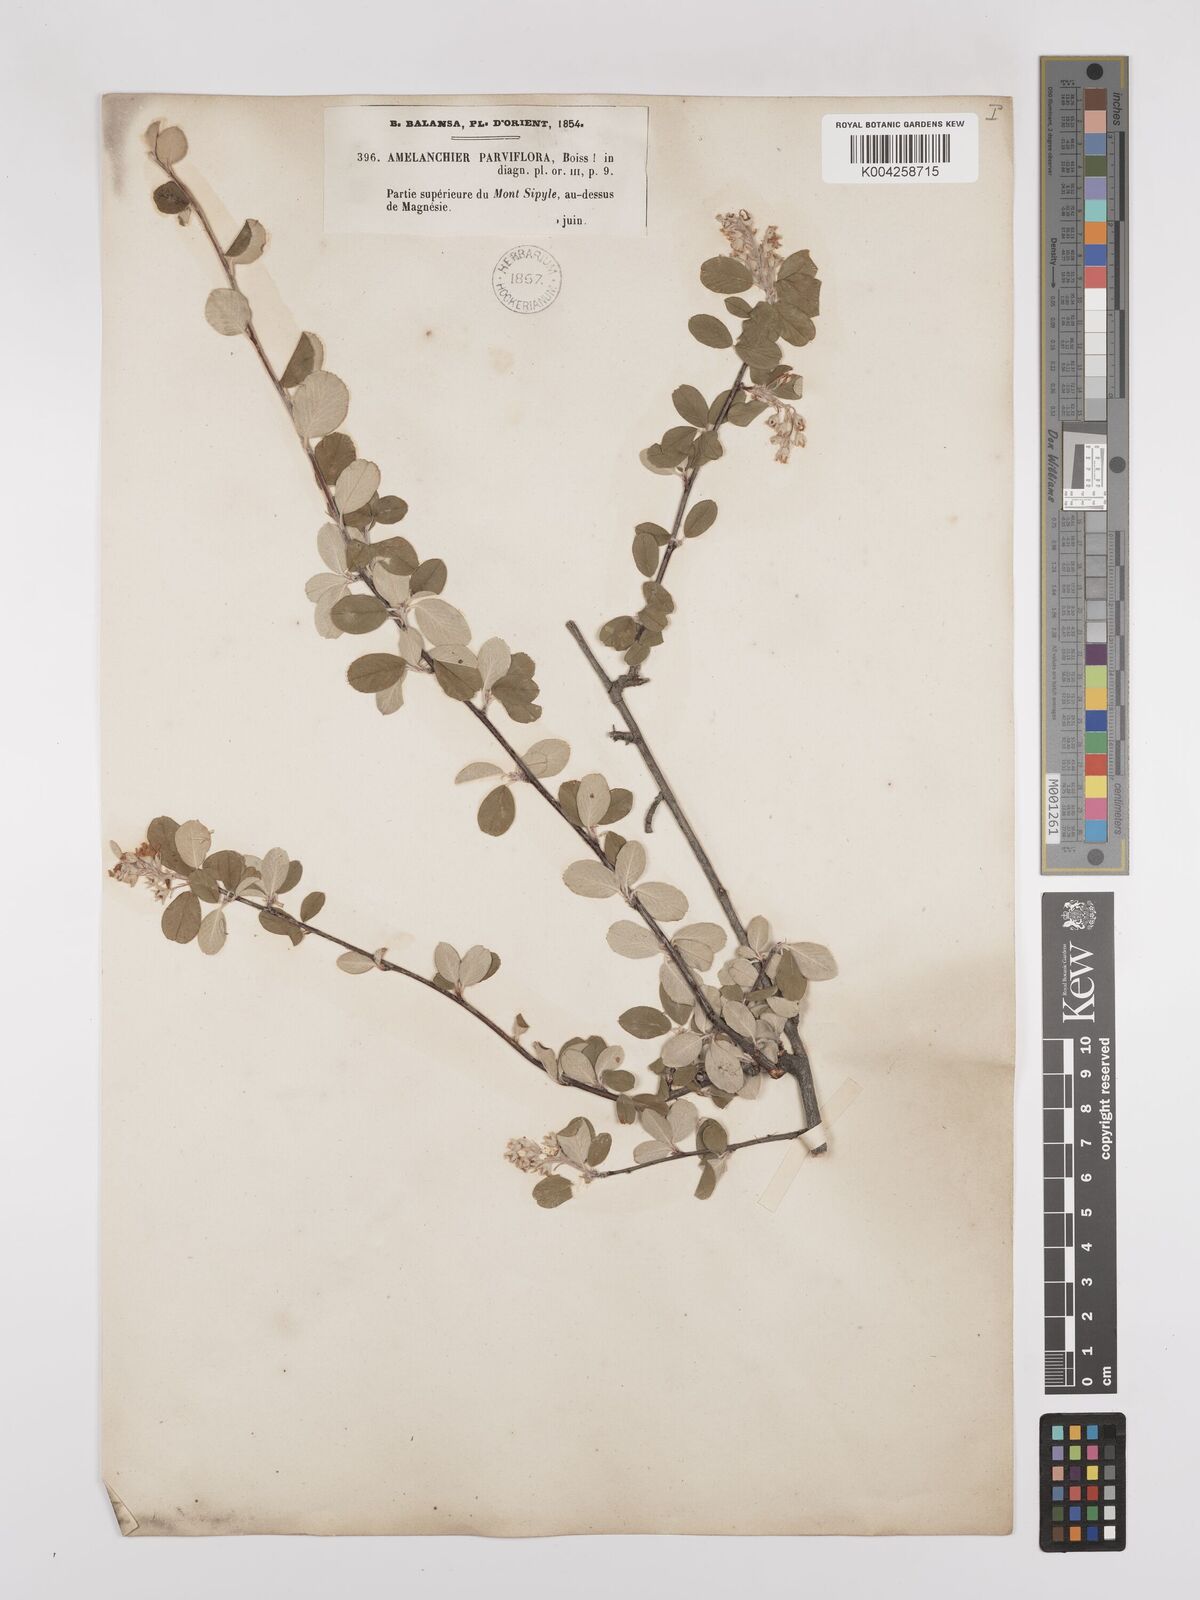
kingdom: Plantae
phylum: Tracheophyta
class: Magnoliopsida
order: Rosales
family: Rosaceae
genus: Amelanchier
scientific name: Amelanchier parviflora
